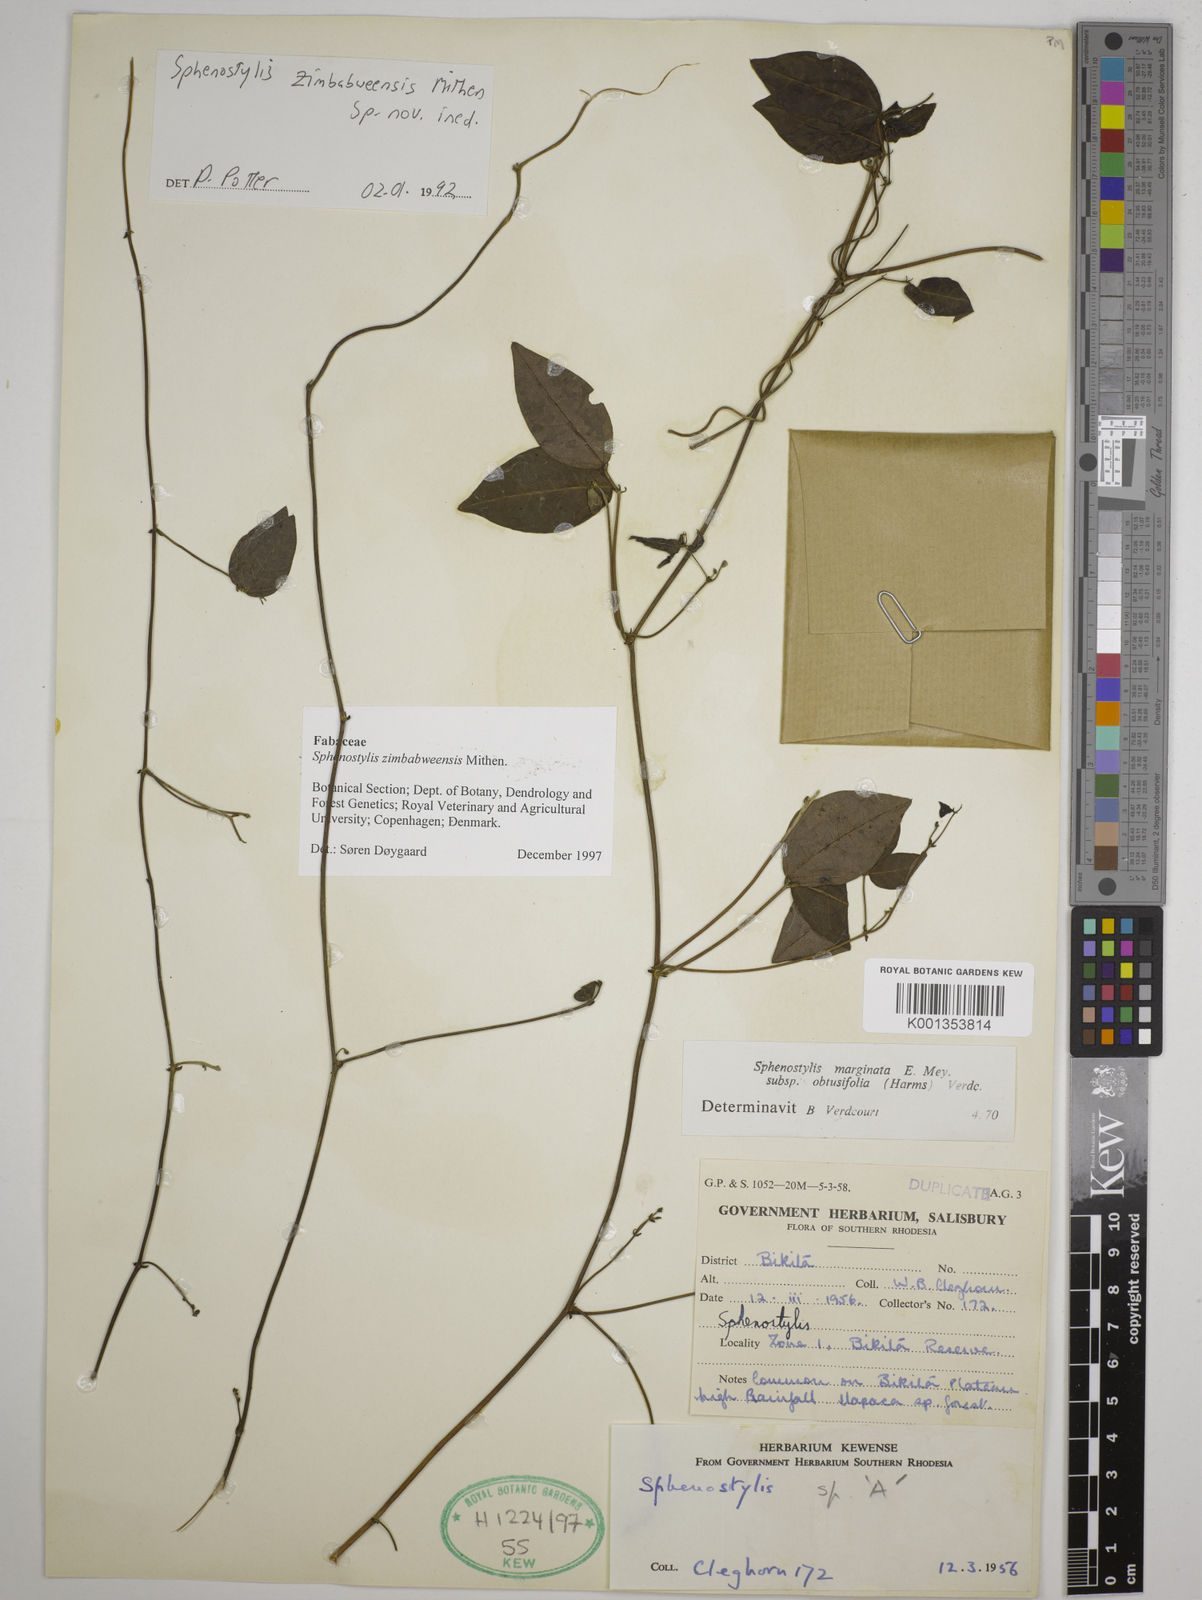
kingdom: Plantae
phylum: Tracheophyta
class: Magnoliopsida
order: Fabales
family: Fabaceae
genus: Sphenostylis
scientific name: Sphenostylis zimbabweensis
